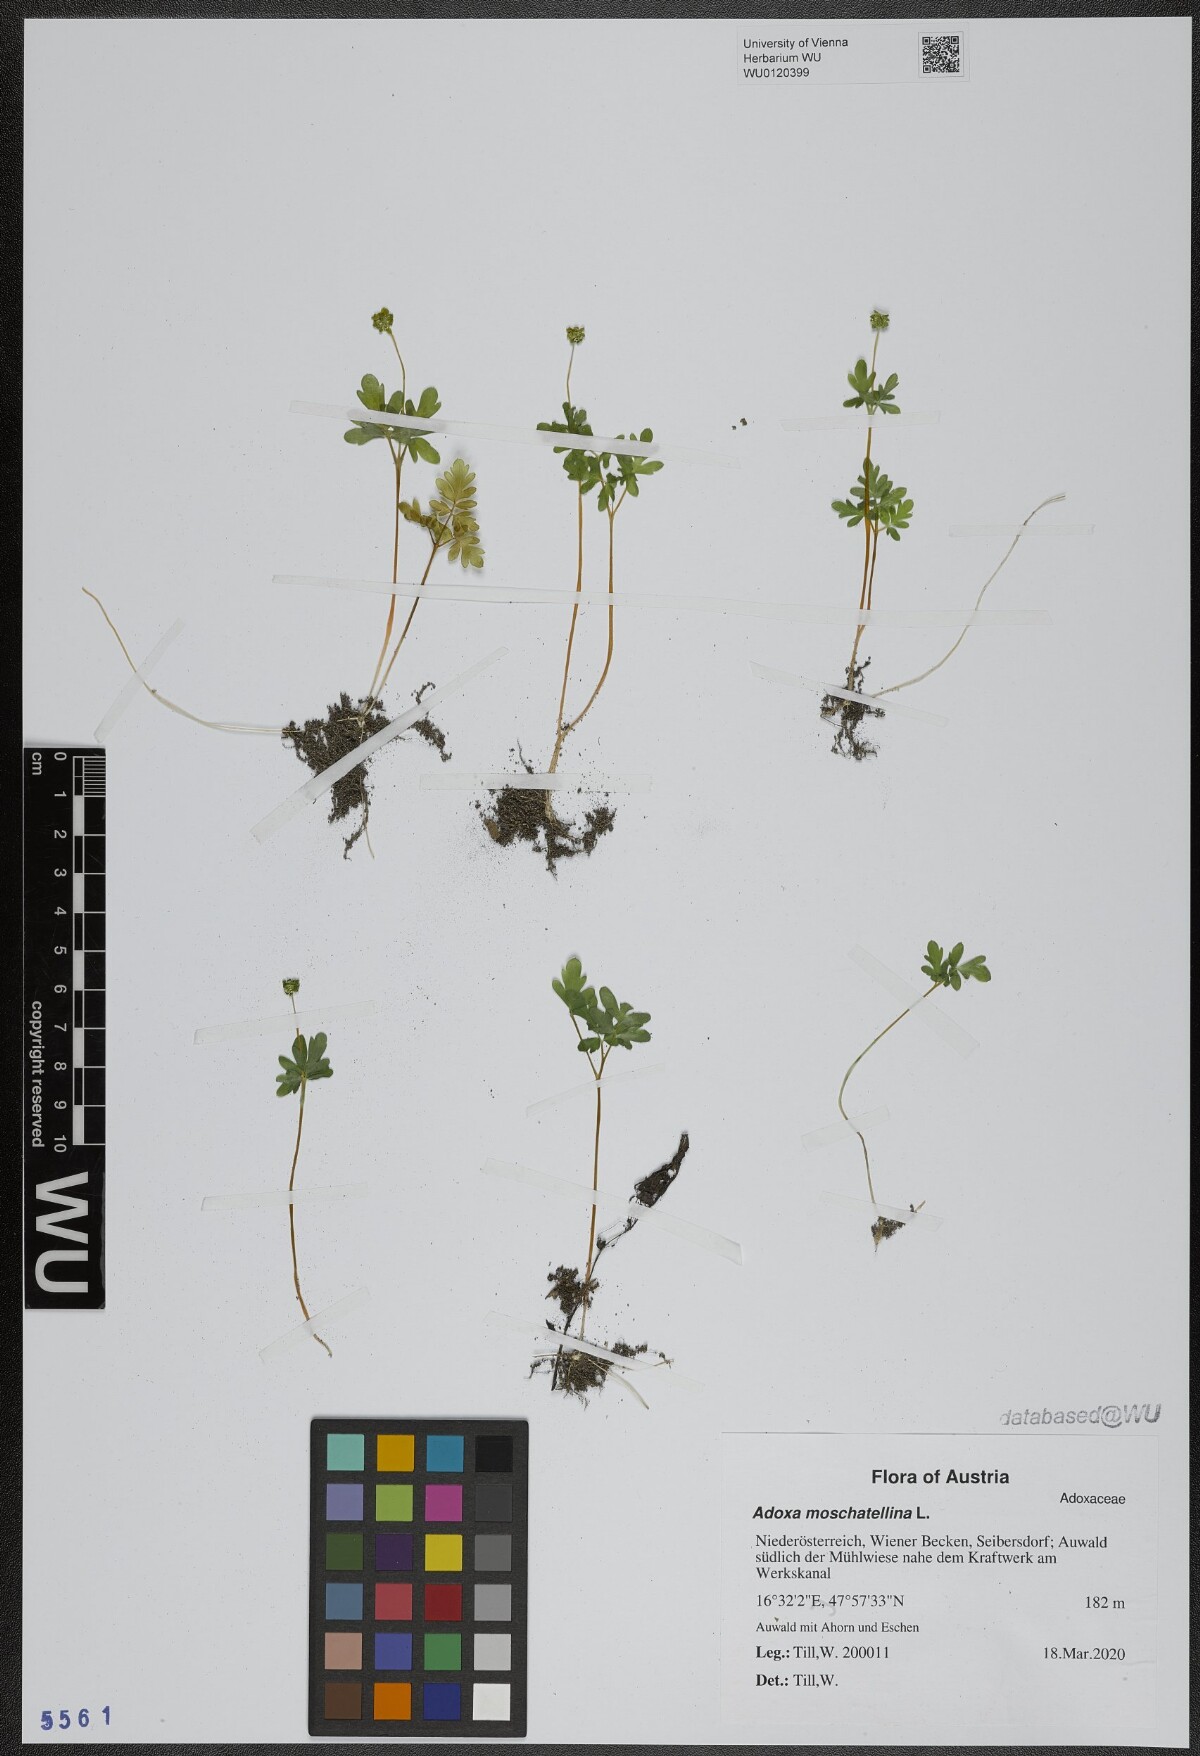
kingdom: Plantae
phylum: Tracheophyta
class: Magnoliopsida
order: Dipsacales
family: Viburnaceae
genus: Adoxa
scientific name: Adoxa moschatellina
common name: Moschatel
